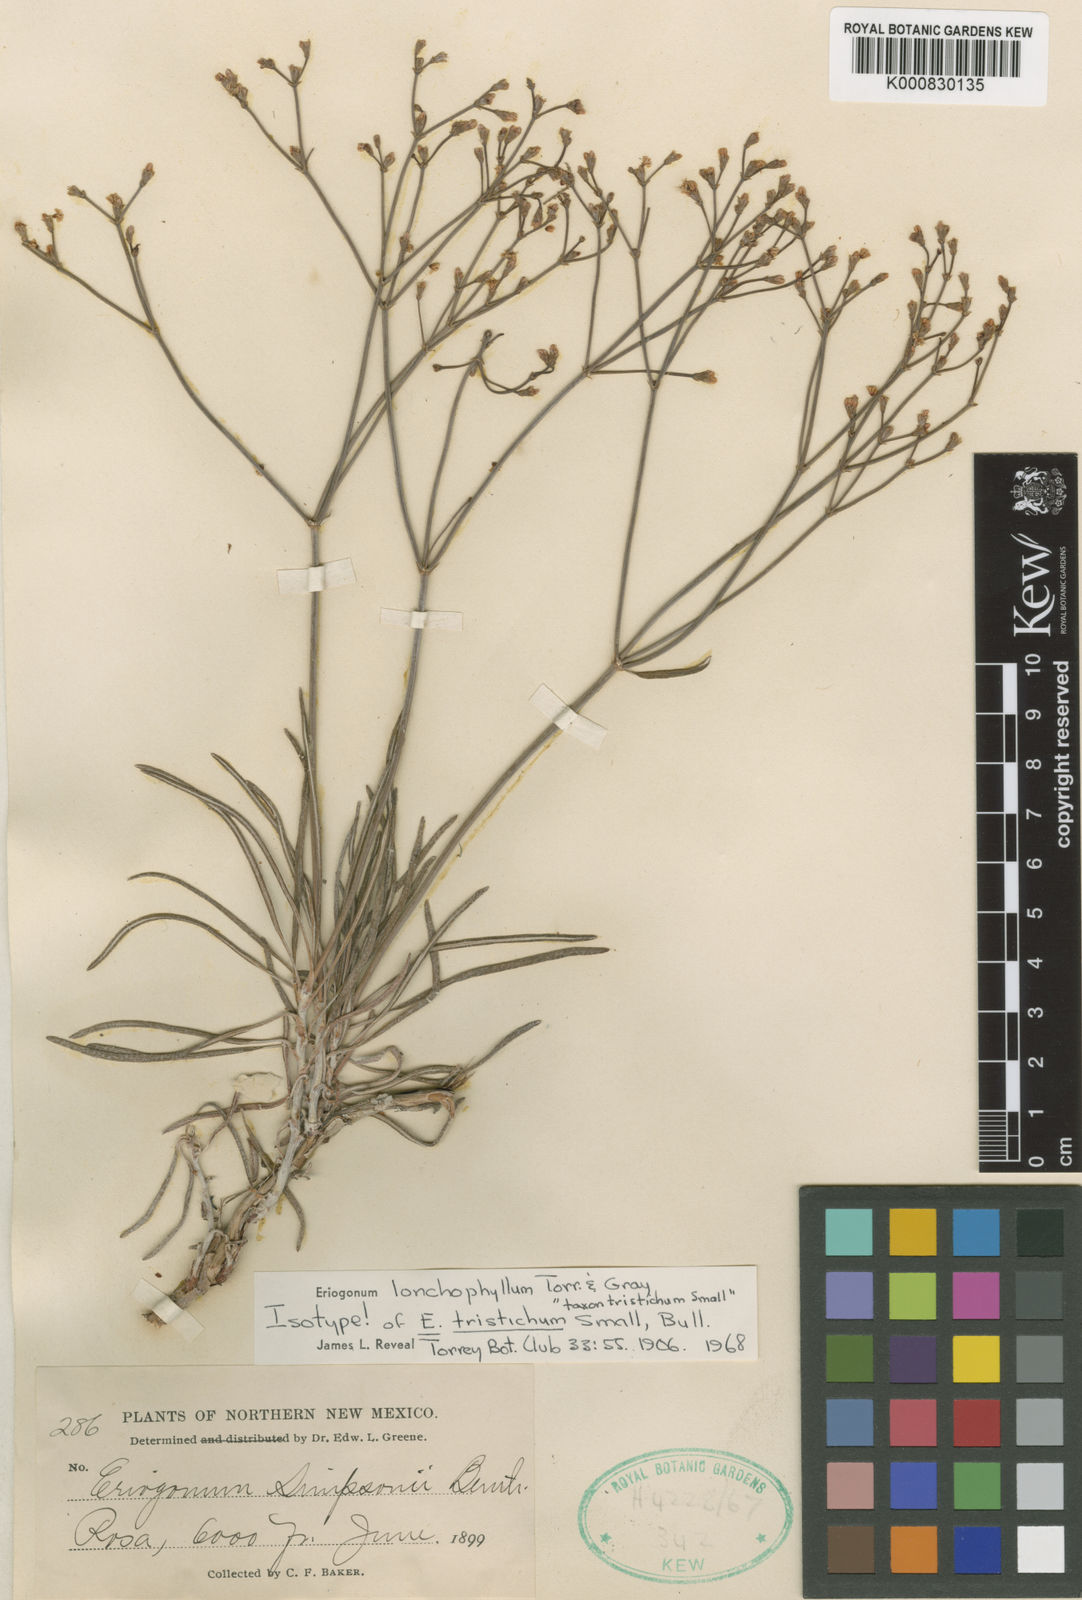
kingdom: Plantae
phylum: Tracheophyta
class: Magnoliopsida
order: Caryophyllales
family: Polygonaceae
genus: Eriogonum
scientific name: Eriogonum lonchophyllum
